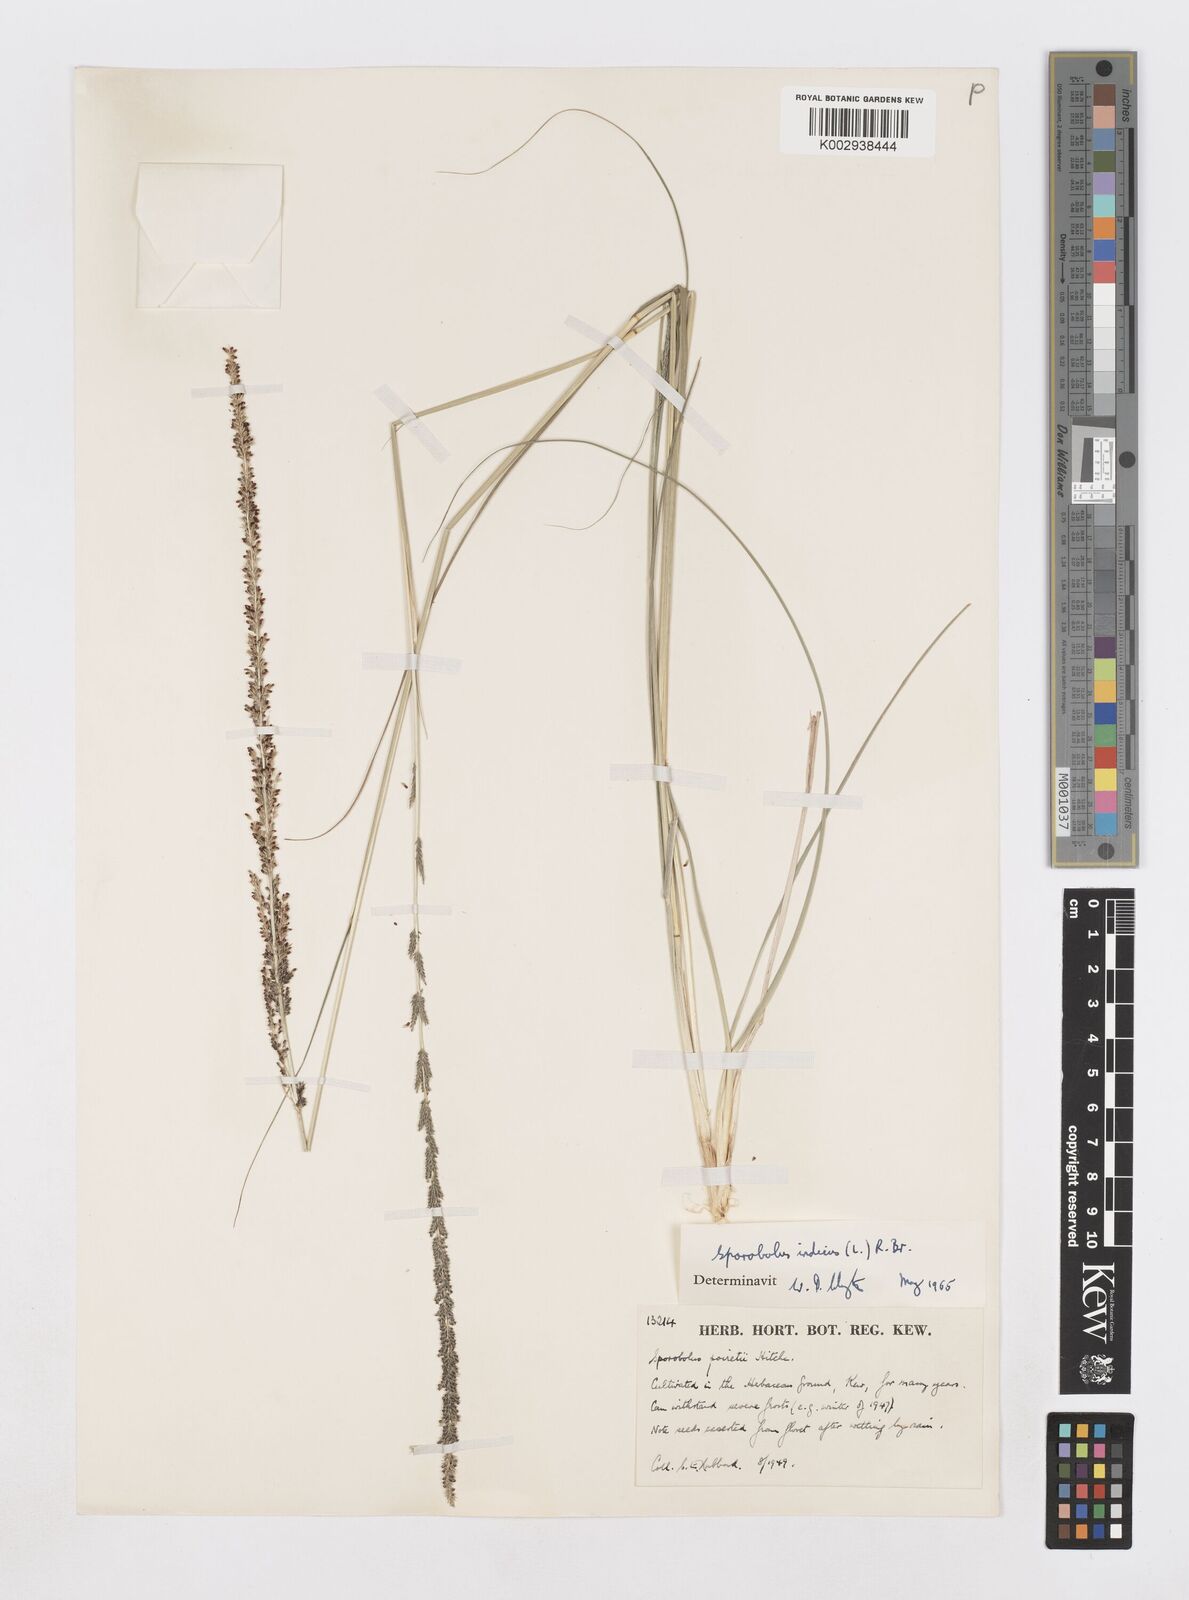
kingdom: Plantae
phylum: Tracheophyta
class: Liliopsida
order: Poales
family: Poaceae
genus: Sporobolus
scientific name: Sporobolus indicus
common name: Smut grass
